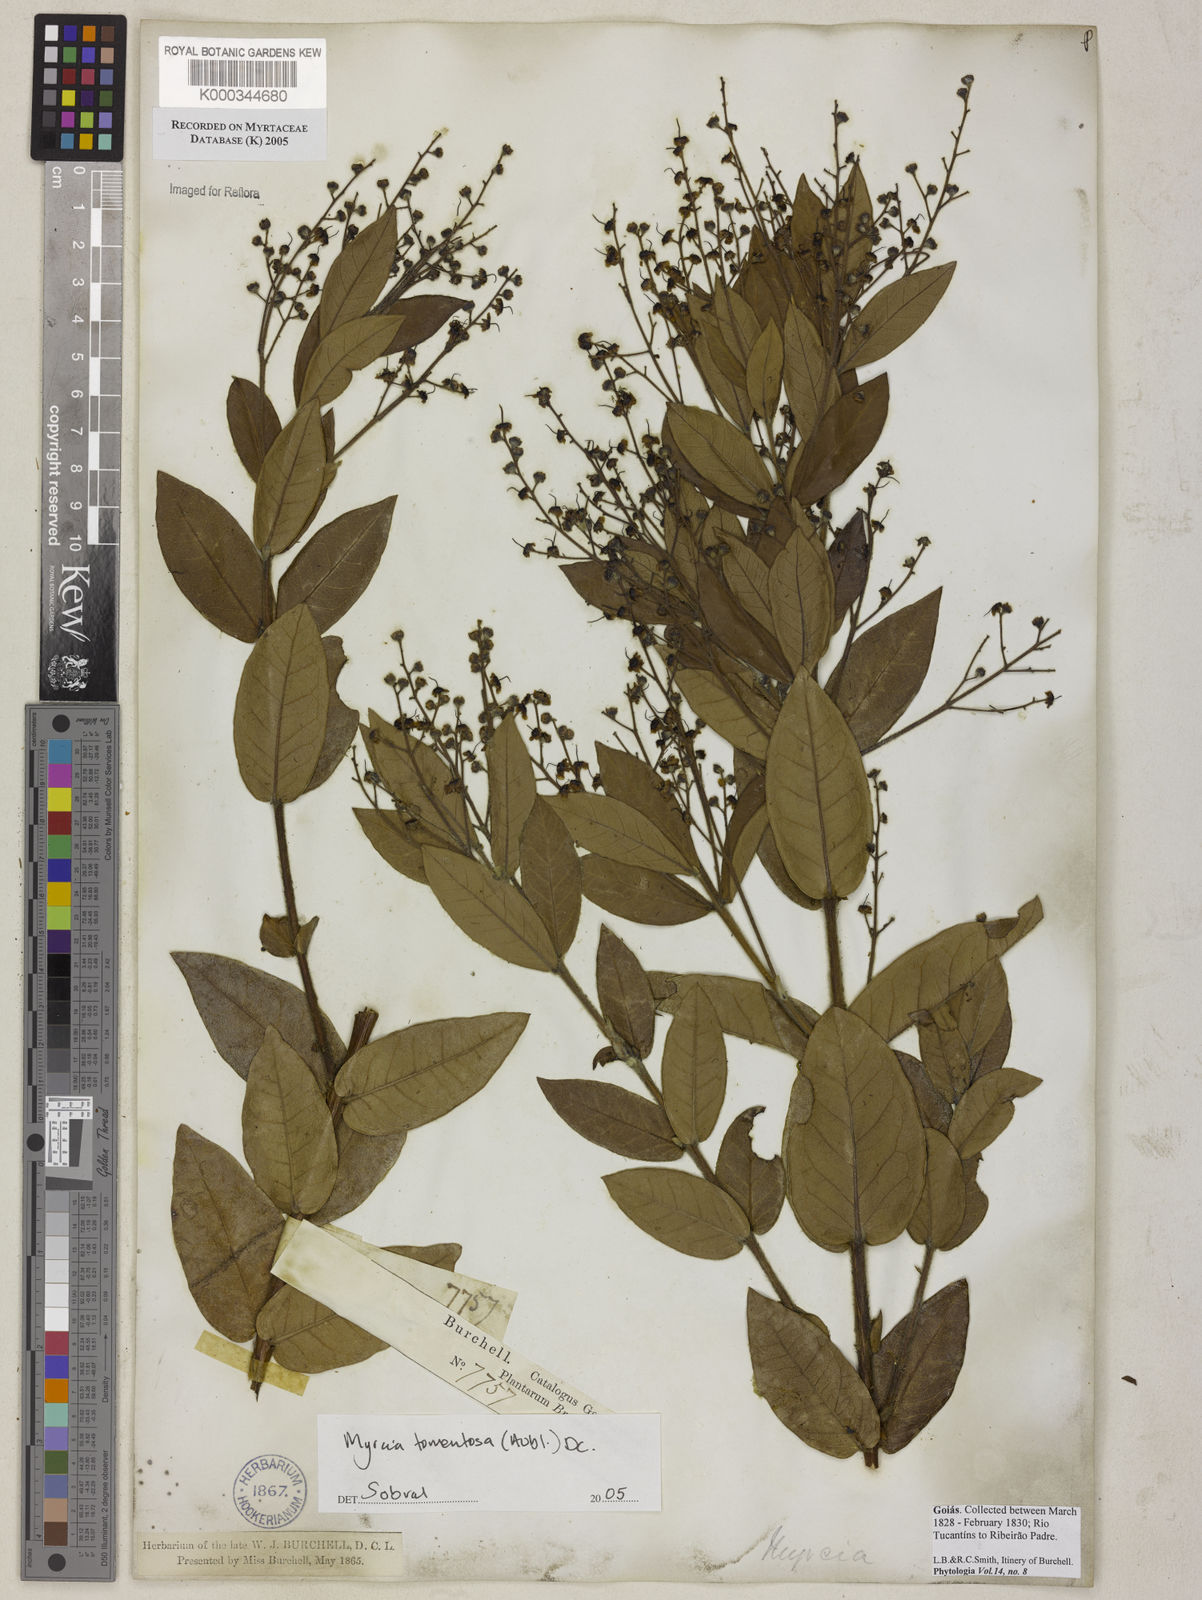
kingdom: Plantae
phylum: Tracheophyta
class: Magnoliopsida
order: Myrtales
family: Myrtaceae
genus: Myrcia
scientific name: Myrcia tomentosa
